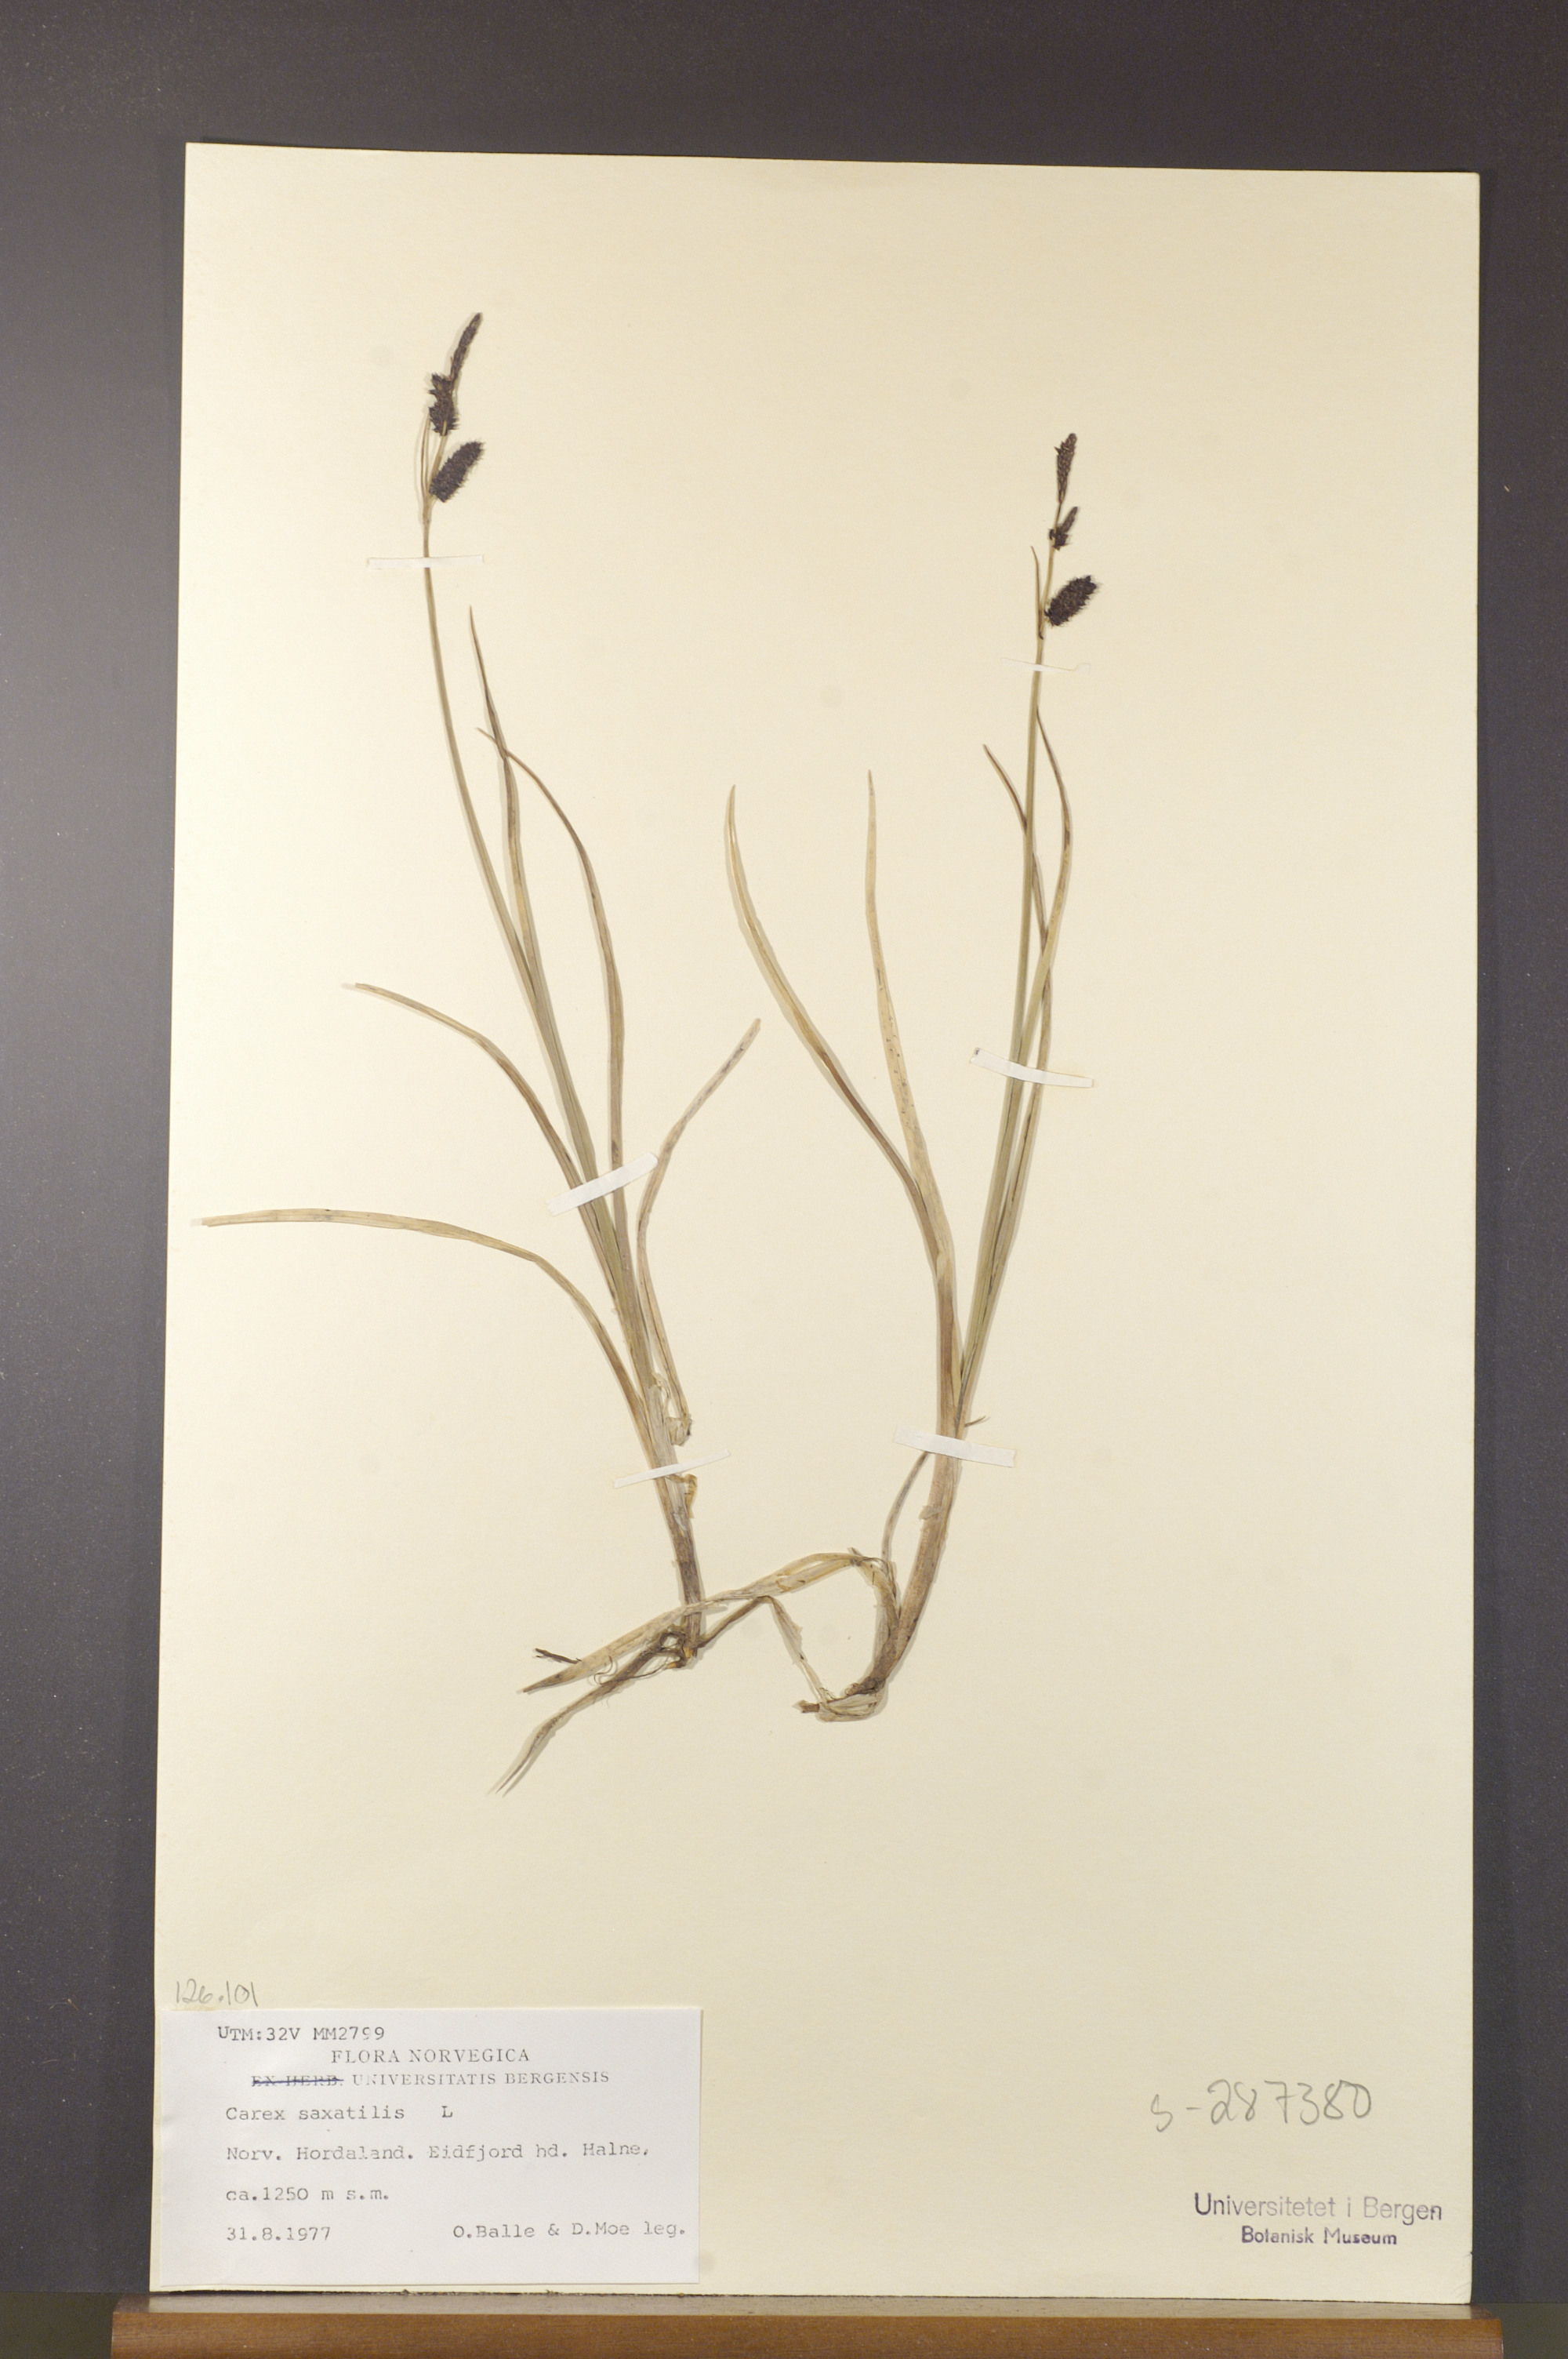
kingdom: Plantae
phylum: Tracheophyta
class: Liliopsida
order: Poales
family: Cyperaceae
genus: Carex
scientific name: Carex saxatilis
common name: Russet sedge
